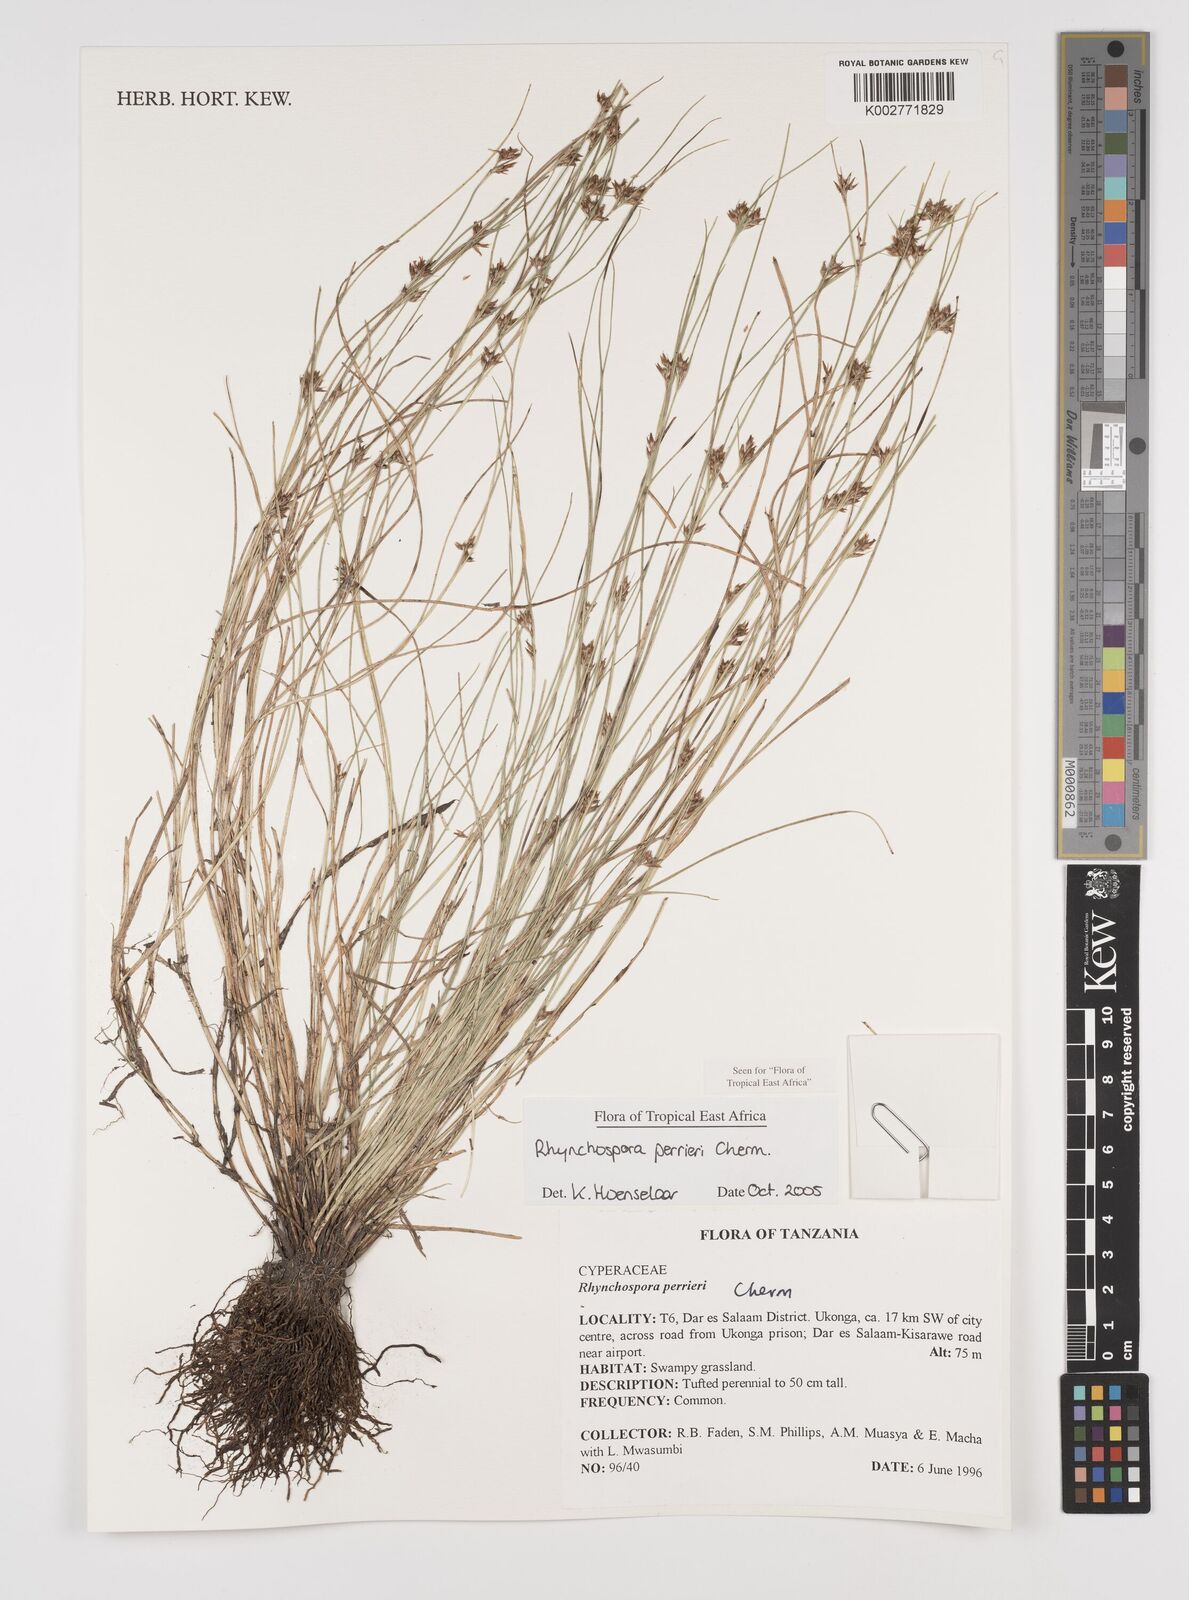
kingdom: Plantae
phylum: Tracheophyta
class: Liliopsida
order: Poales
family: Cyperaceae
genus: Rhynchospora
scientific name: Rhynchospora perrieri
